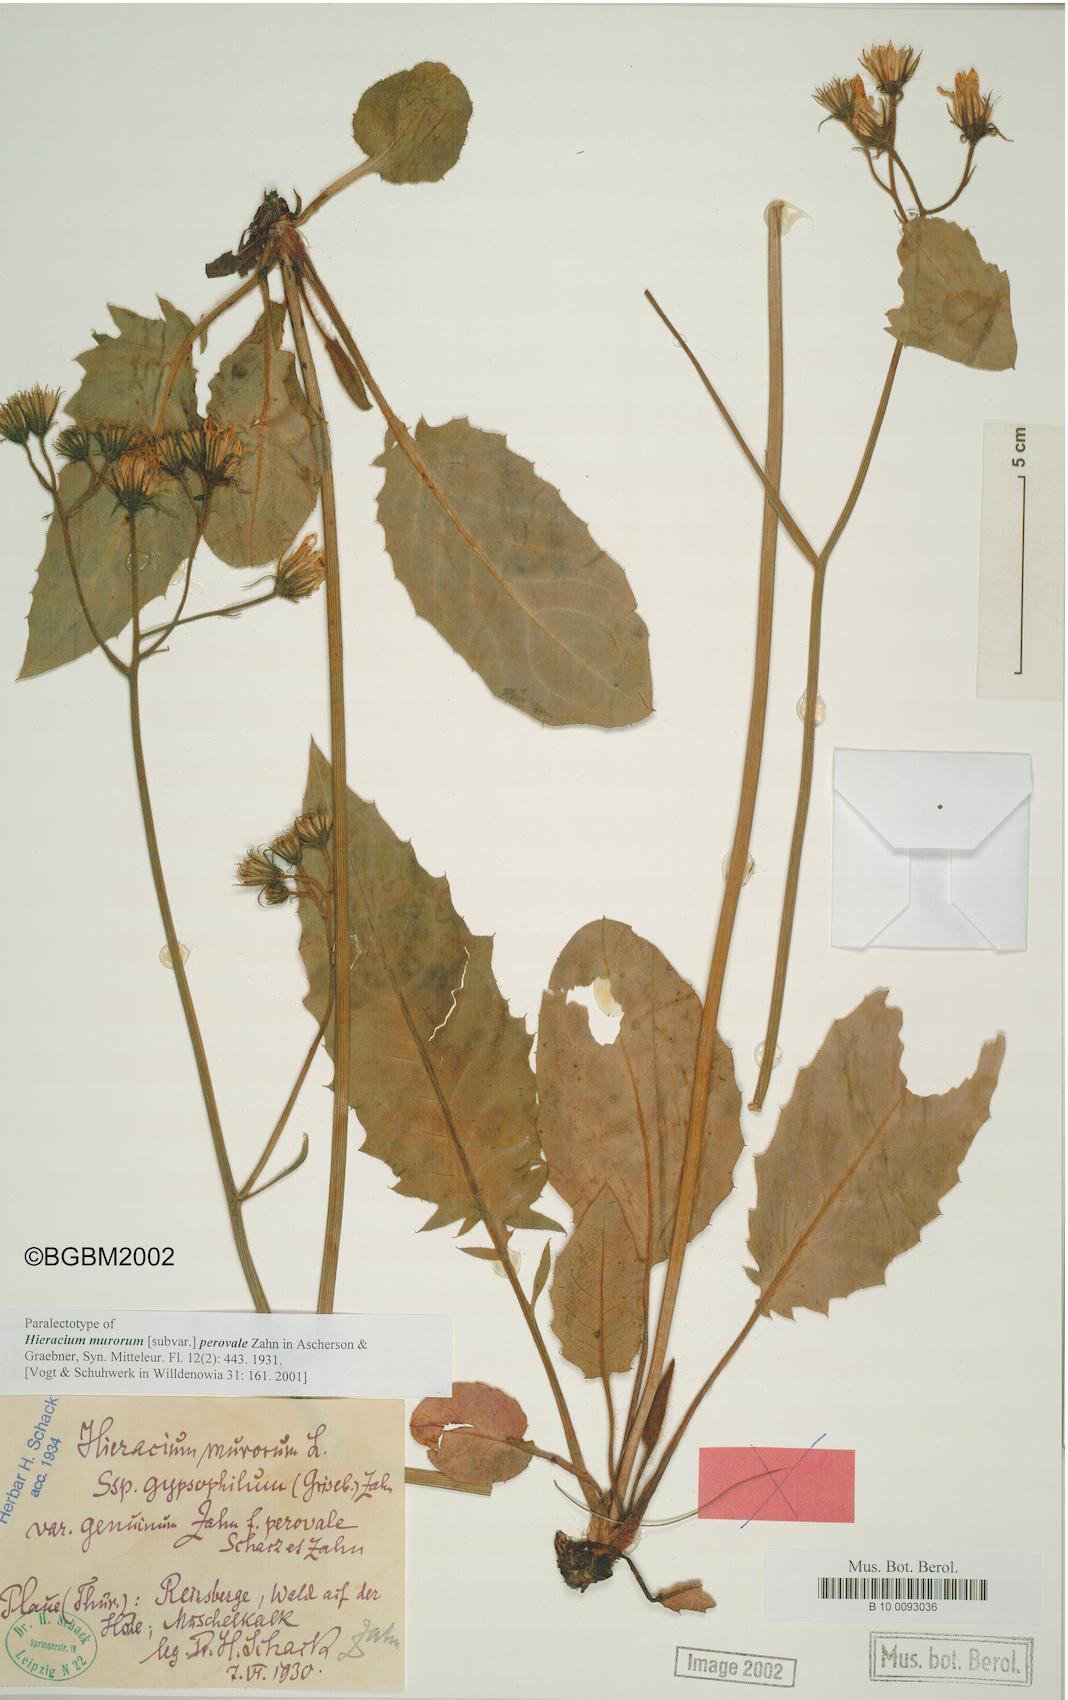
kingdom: Plantae
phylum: Tracheophyta
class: Magnoliopsida
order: Asterales
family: Asteraceae
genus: Hieracium
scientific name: Hieracium murorum
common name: Wall hawkweed
